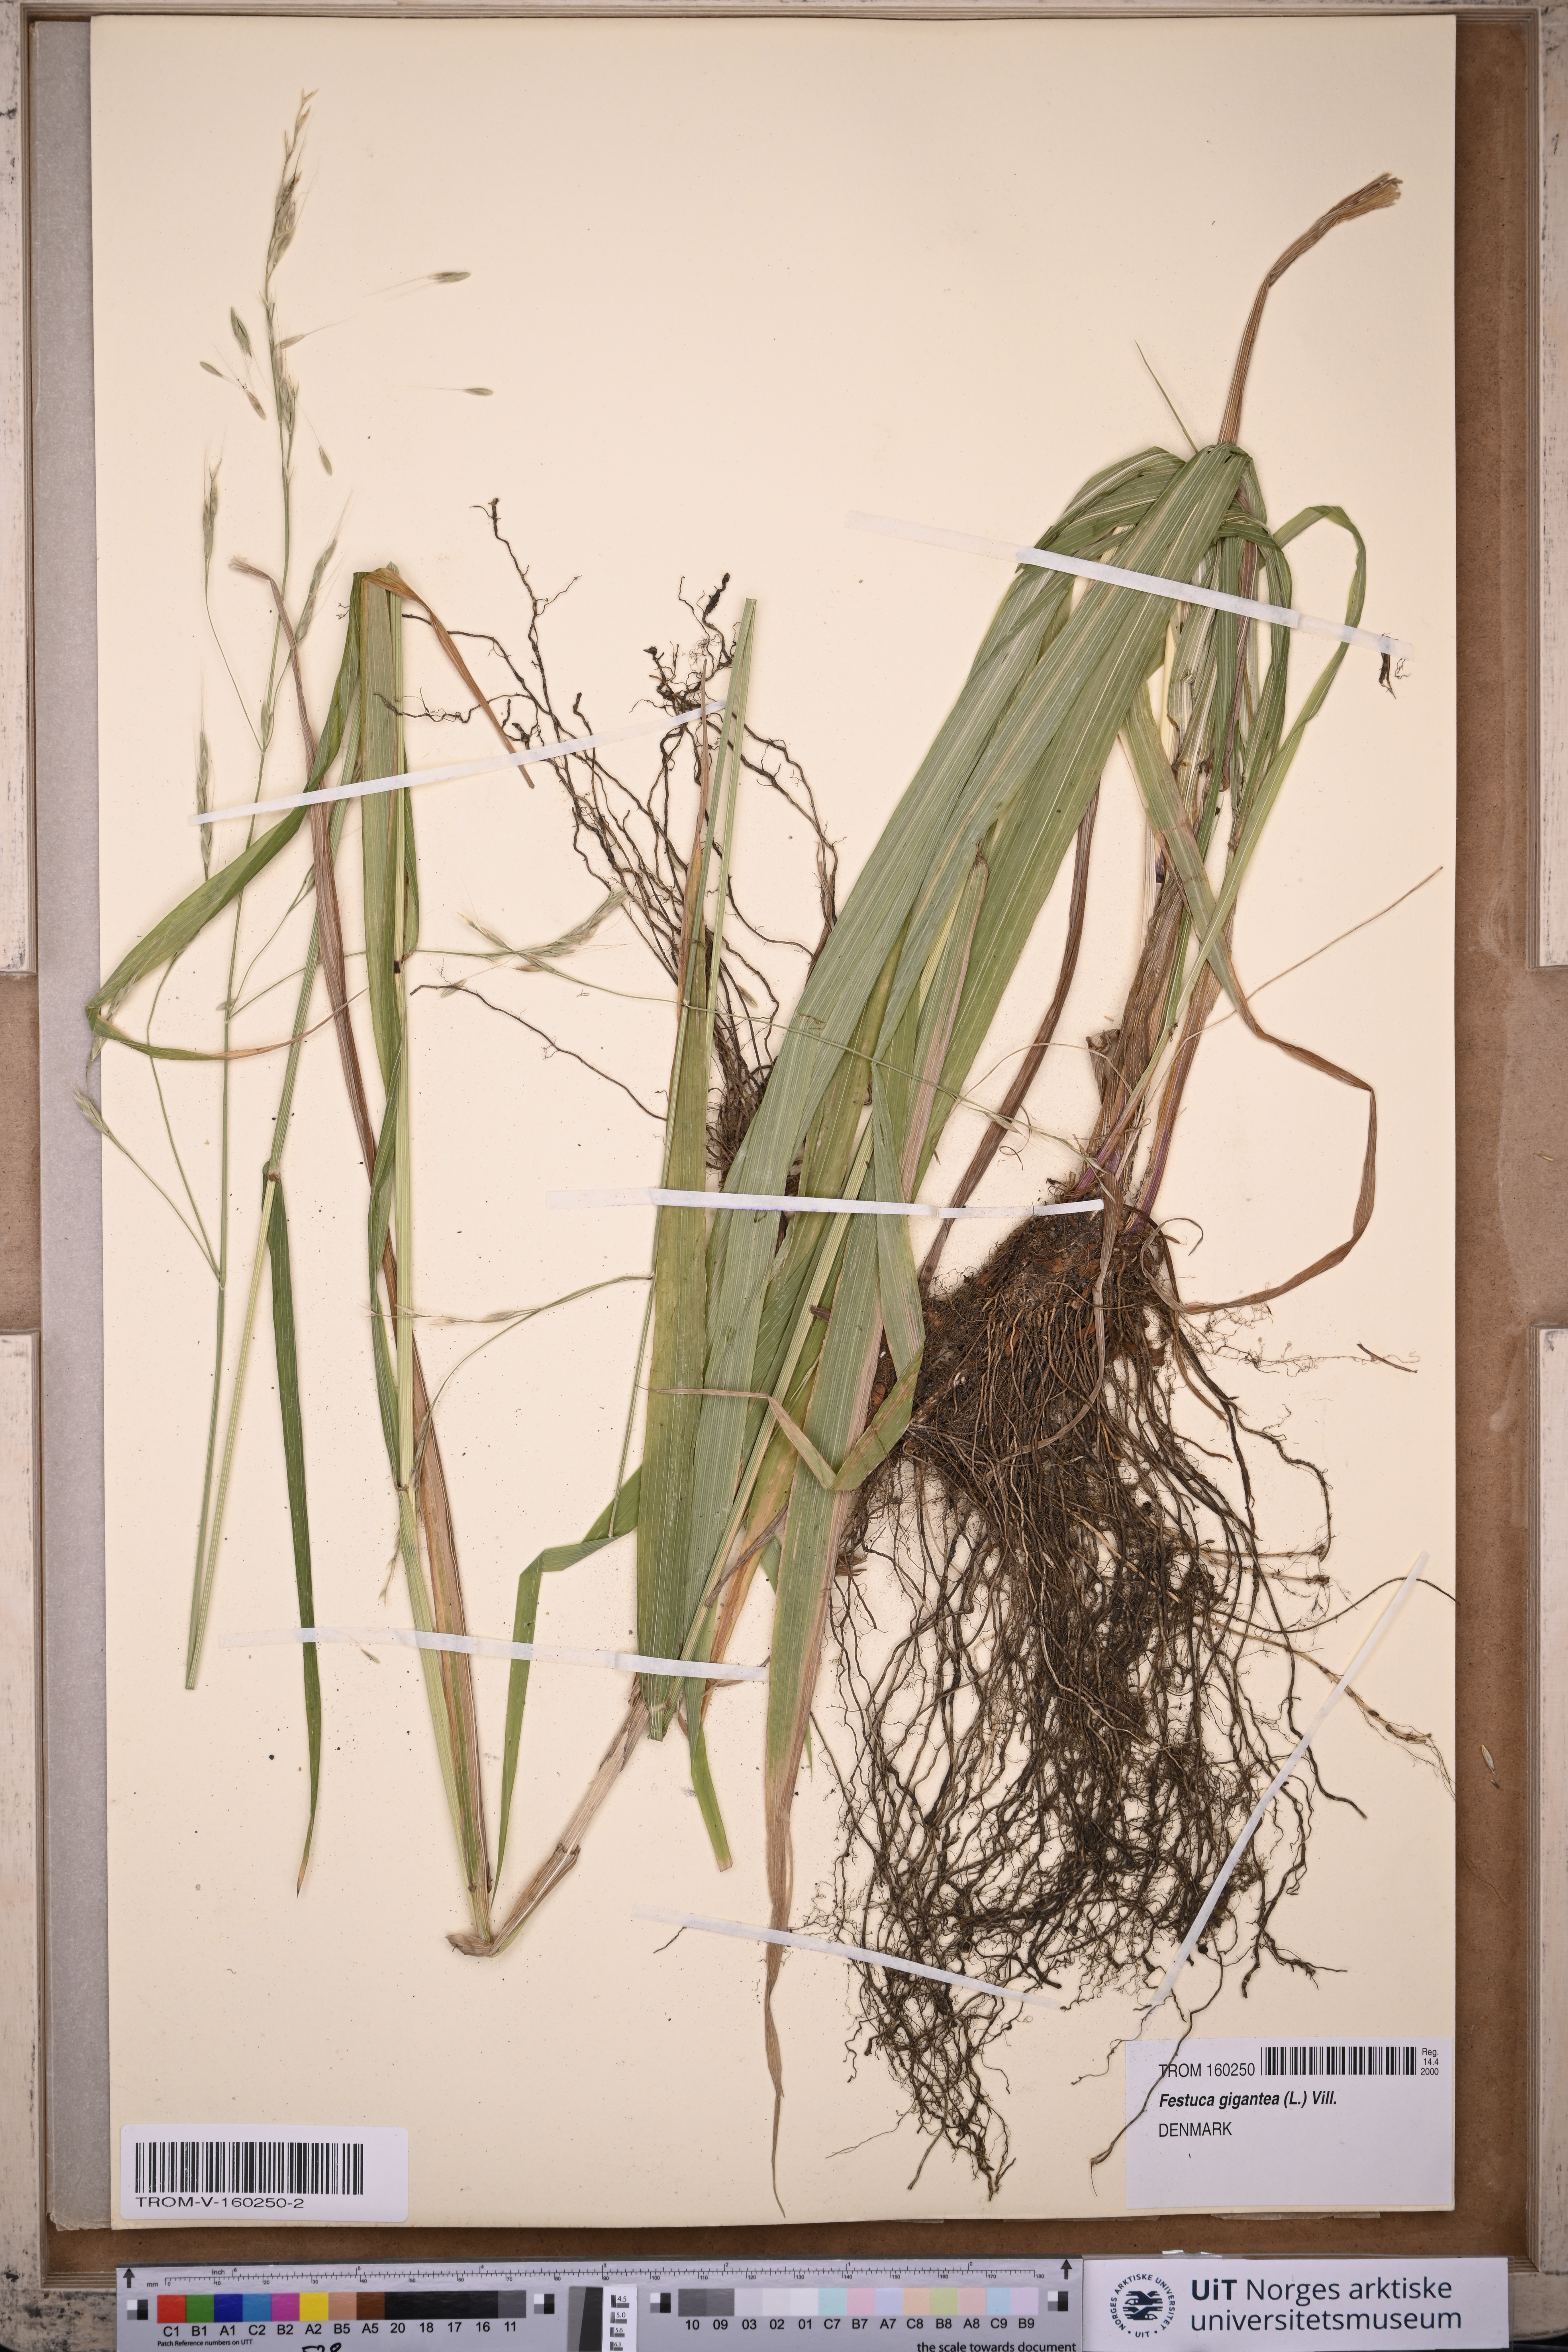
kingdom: Plantae
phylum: Tracheophyta
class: Liliopsida
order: Poales
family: Poaceae
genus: Lolium
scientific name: Lolium giganteum
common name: Giant fescue
